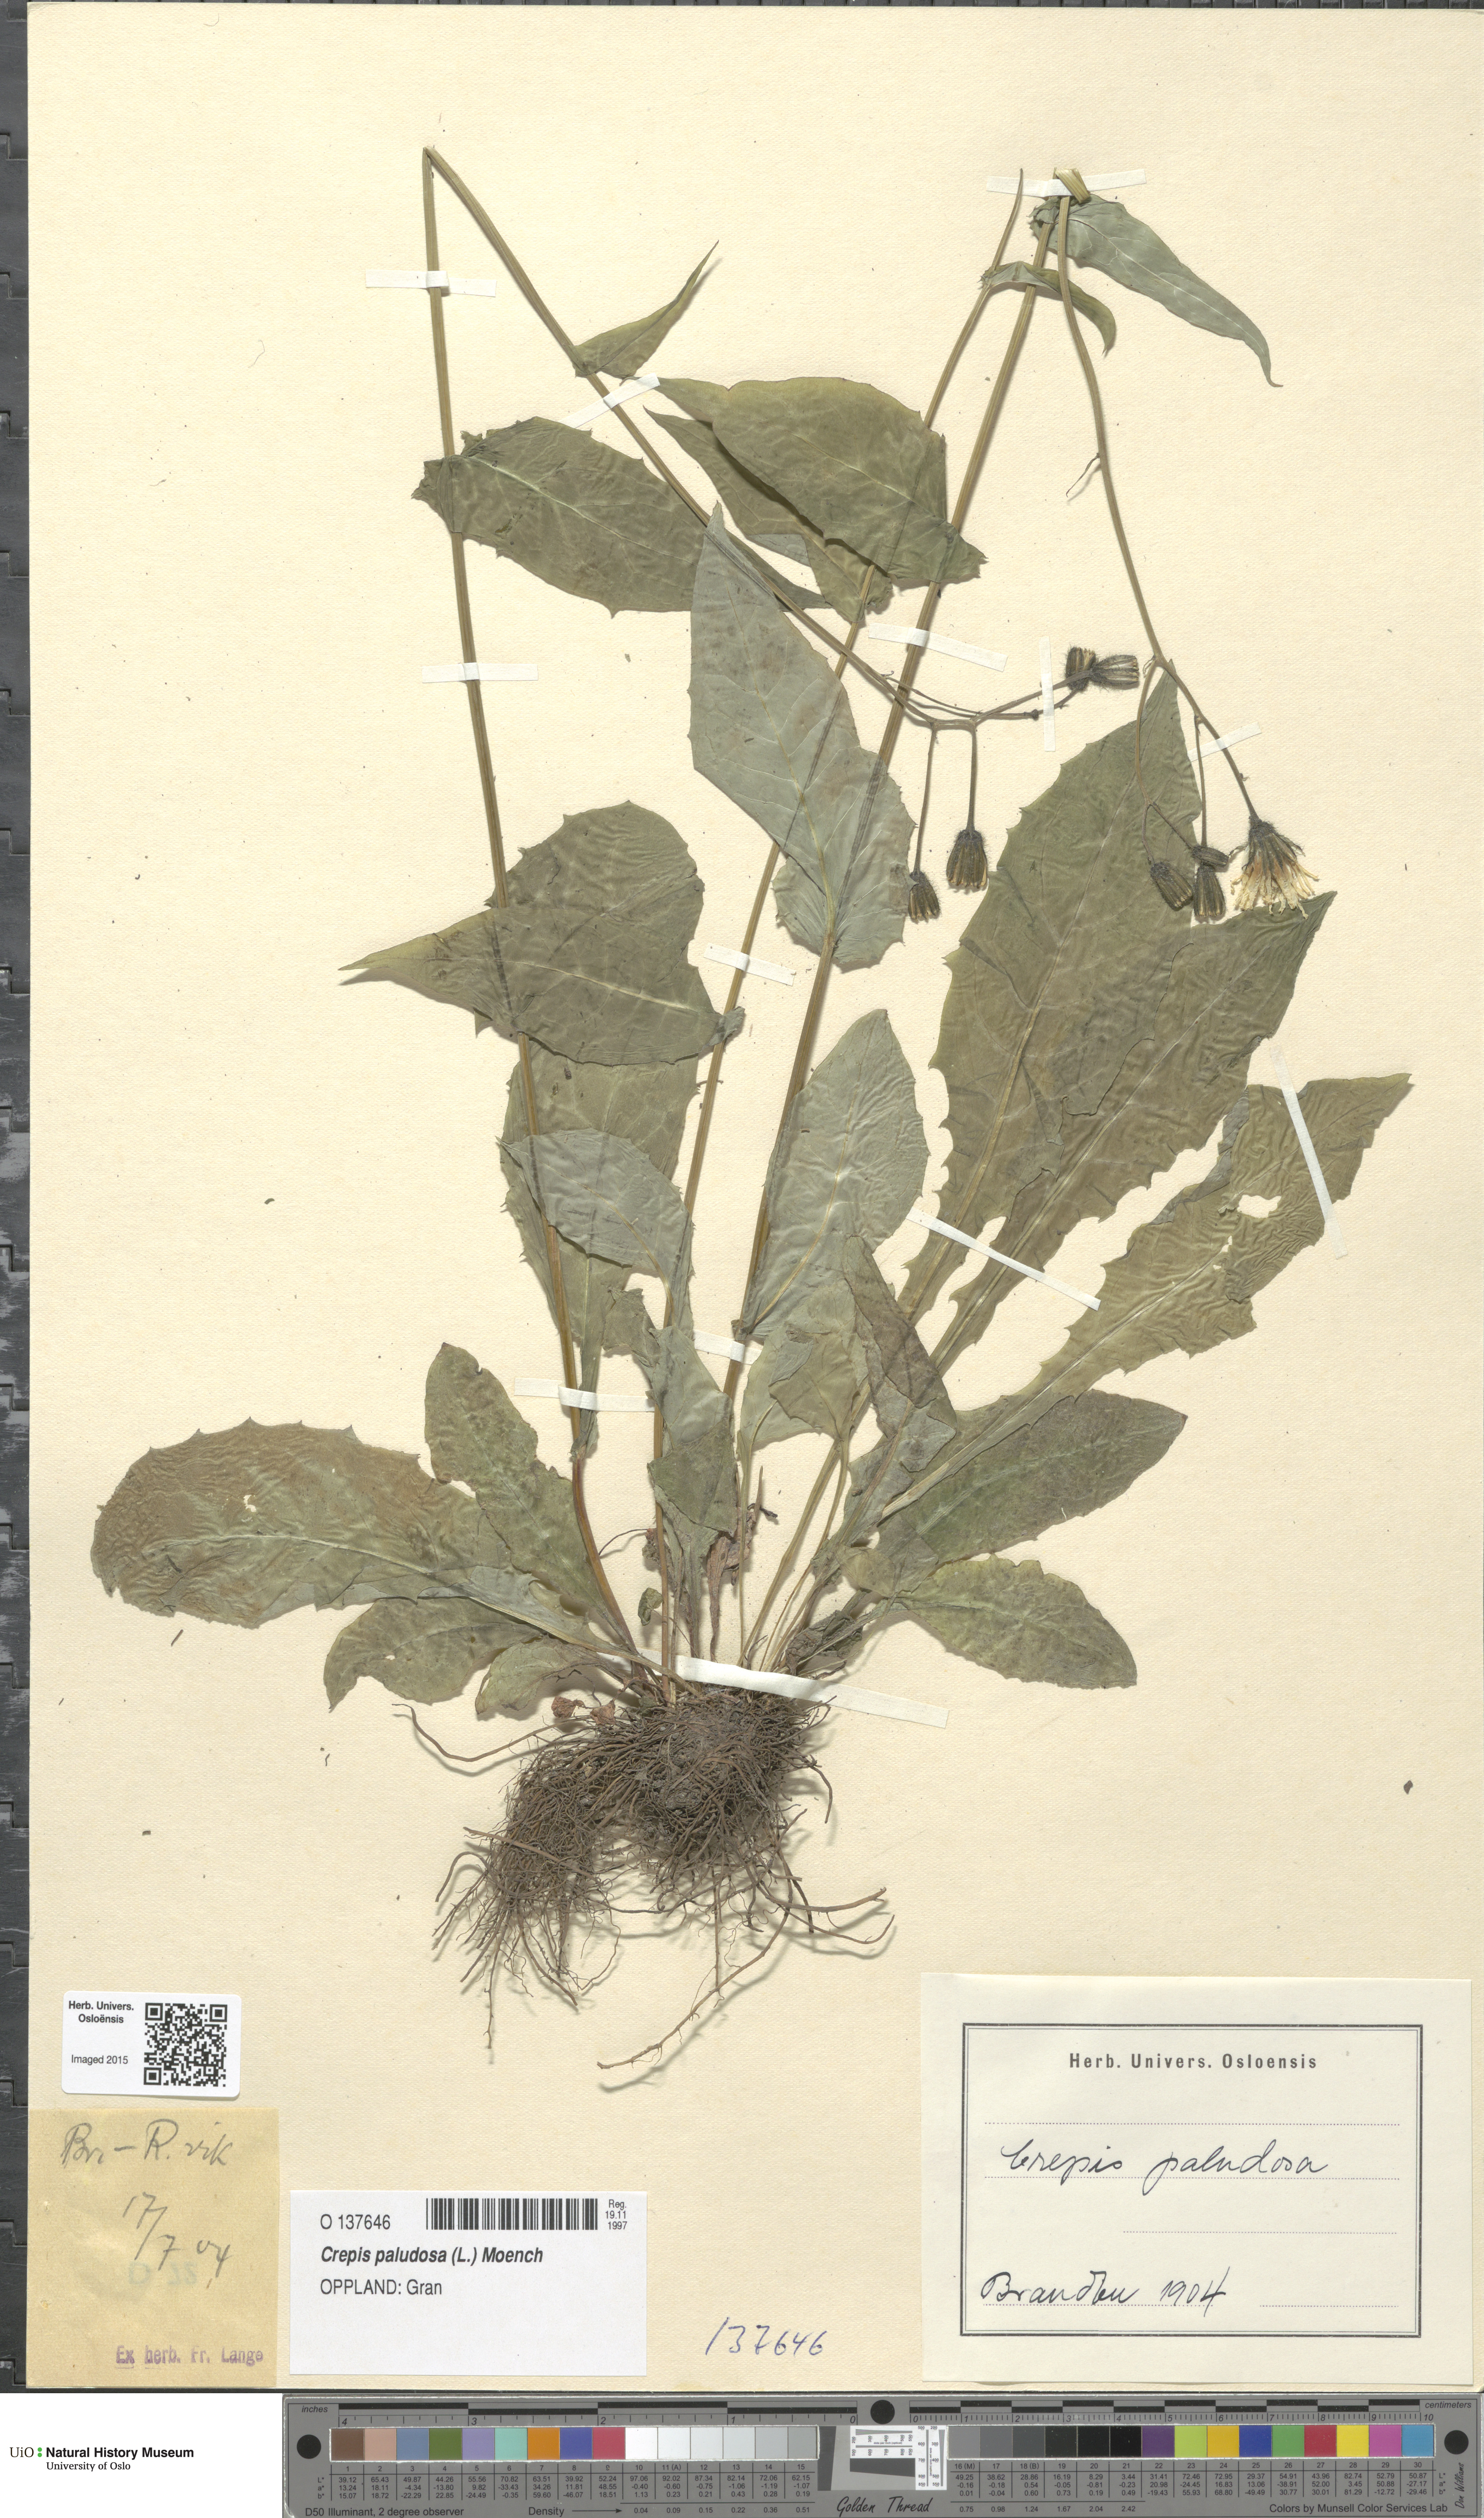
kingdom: Plantae
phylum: Tracheophyta
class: Magnoliopsida
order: Asterales
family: Asteraceae
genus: Crepis
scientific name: Crepis paludosa
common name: Marsh hawk's-beard
